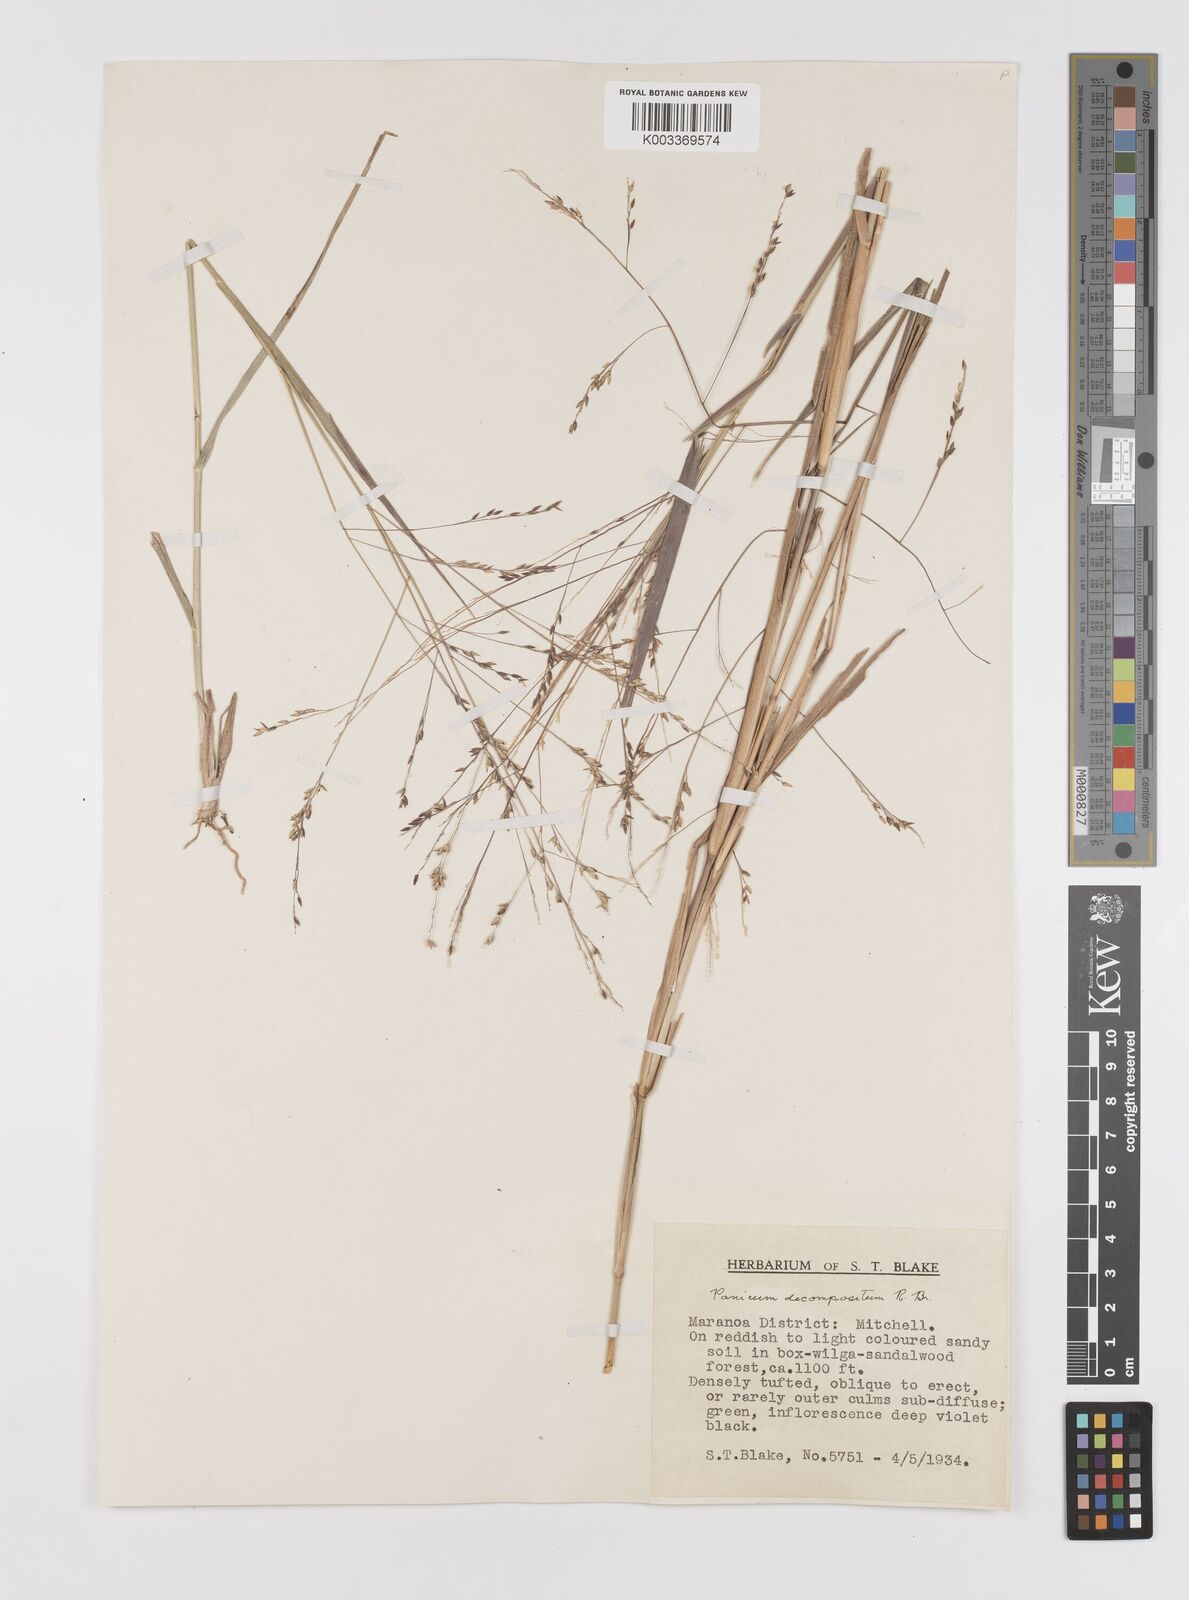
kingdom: Plantae
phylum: Tracheophyta
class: Liliopsida
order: Poales
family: Poaceae
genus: Panicum
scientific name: Panicum decompositum
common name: Australian millet
